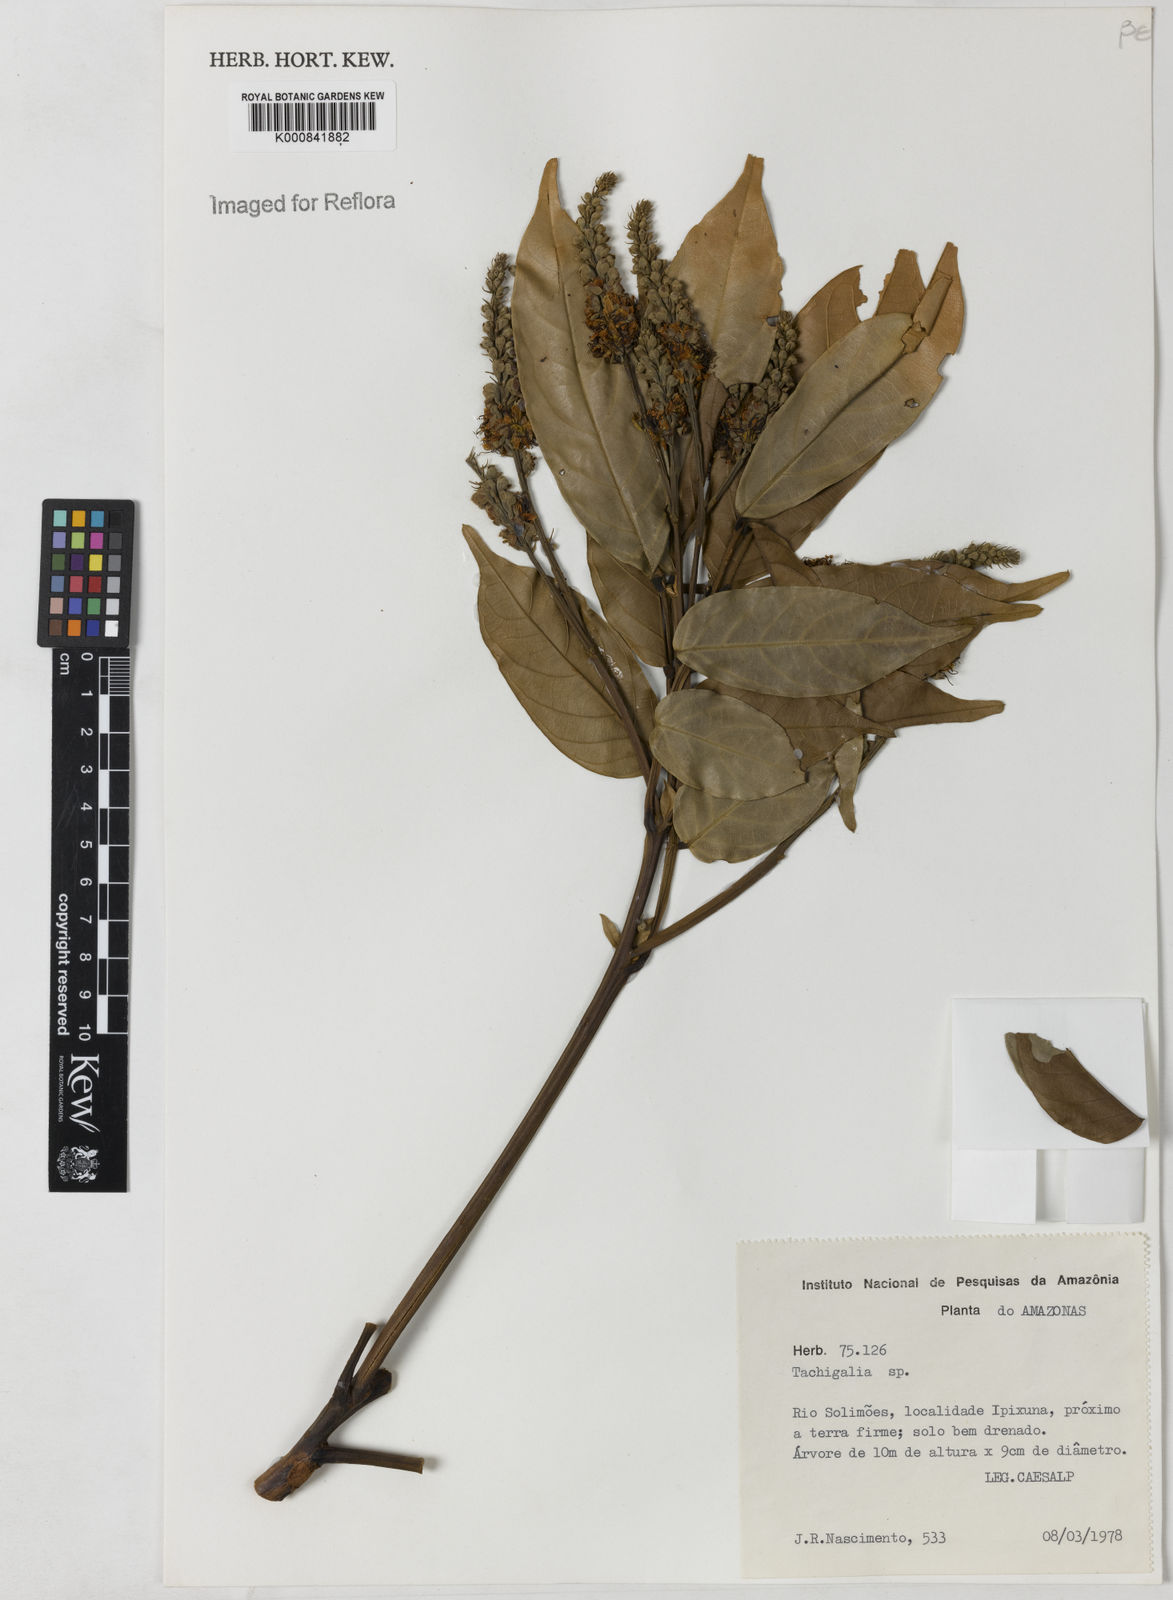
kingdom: Plantae
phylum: Tracheophyta
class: Magnoliopsida
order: Fabales
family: Fabaceae
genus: Tachigali
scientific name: Tachigali
